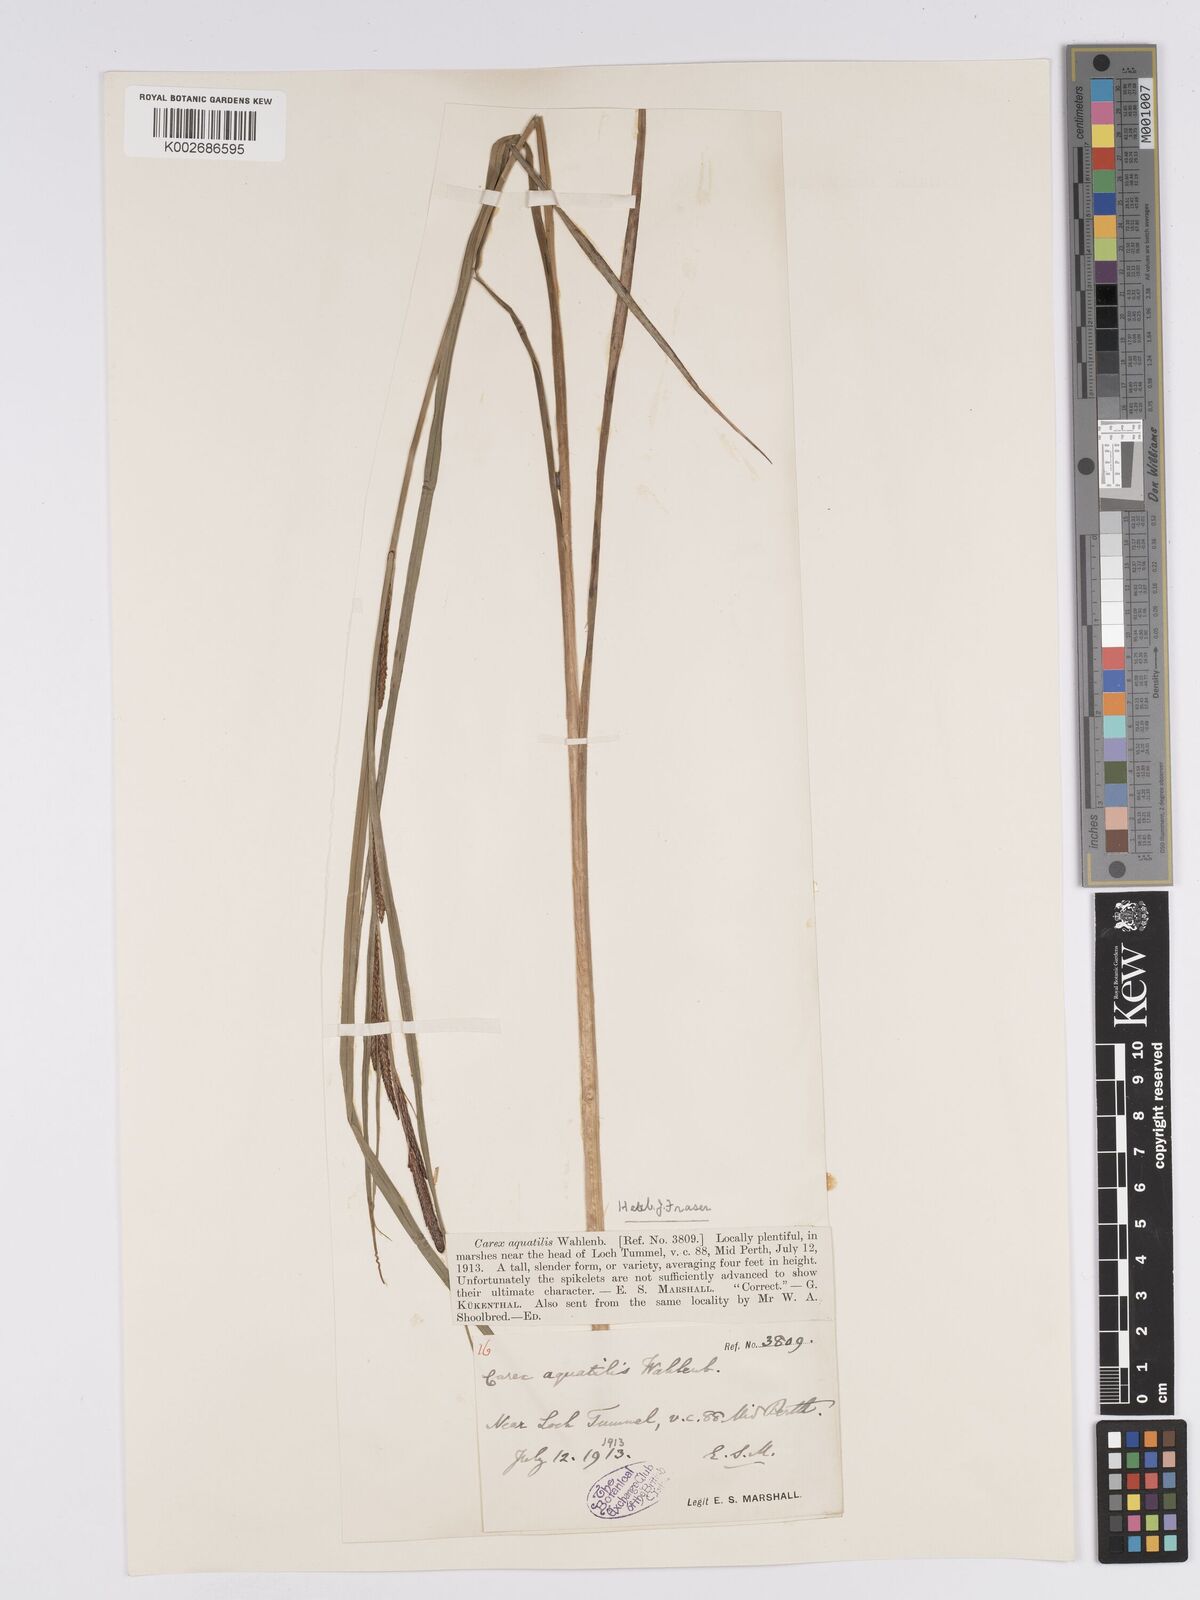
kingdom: Plantae
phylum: Tracheophyta
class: Liliopsida
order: Poales
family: Cyperaceae
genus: Carex
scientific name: Carex aquatilis
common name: Water sedge
